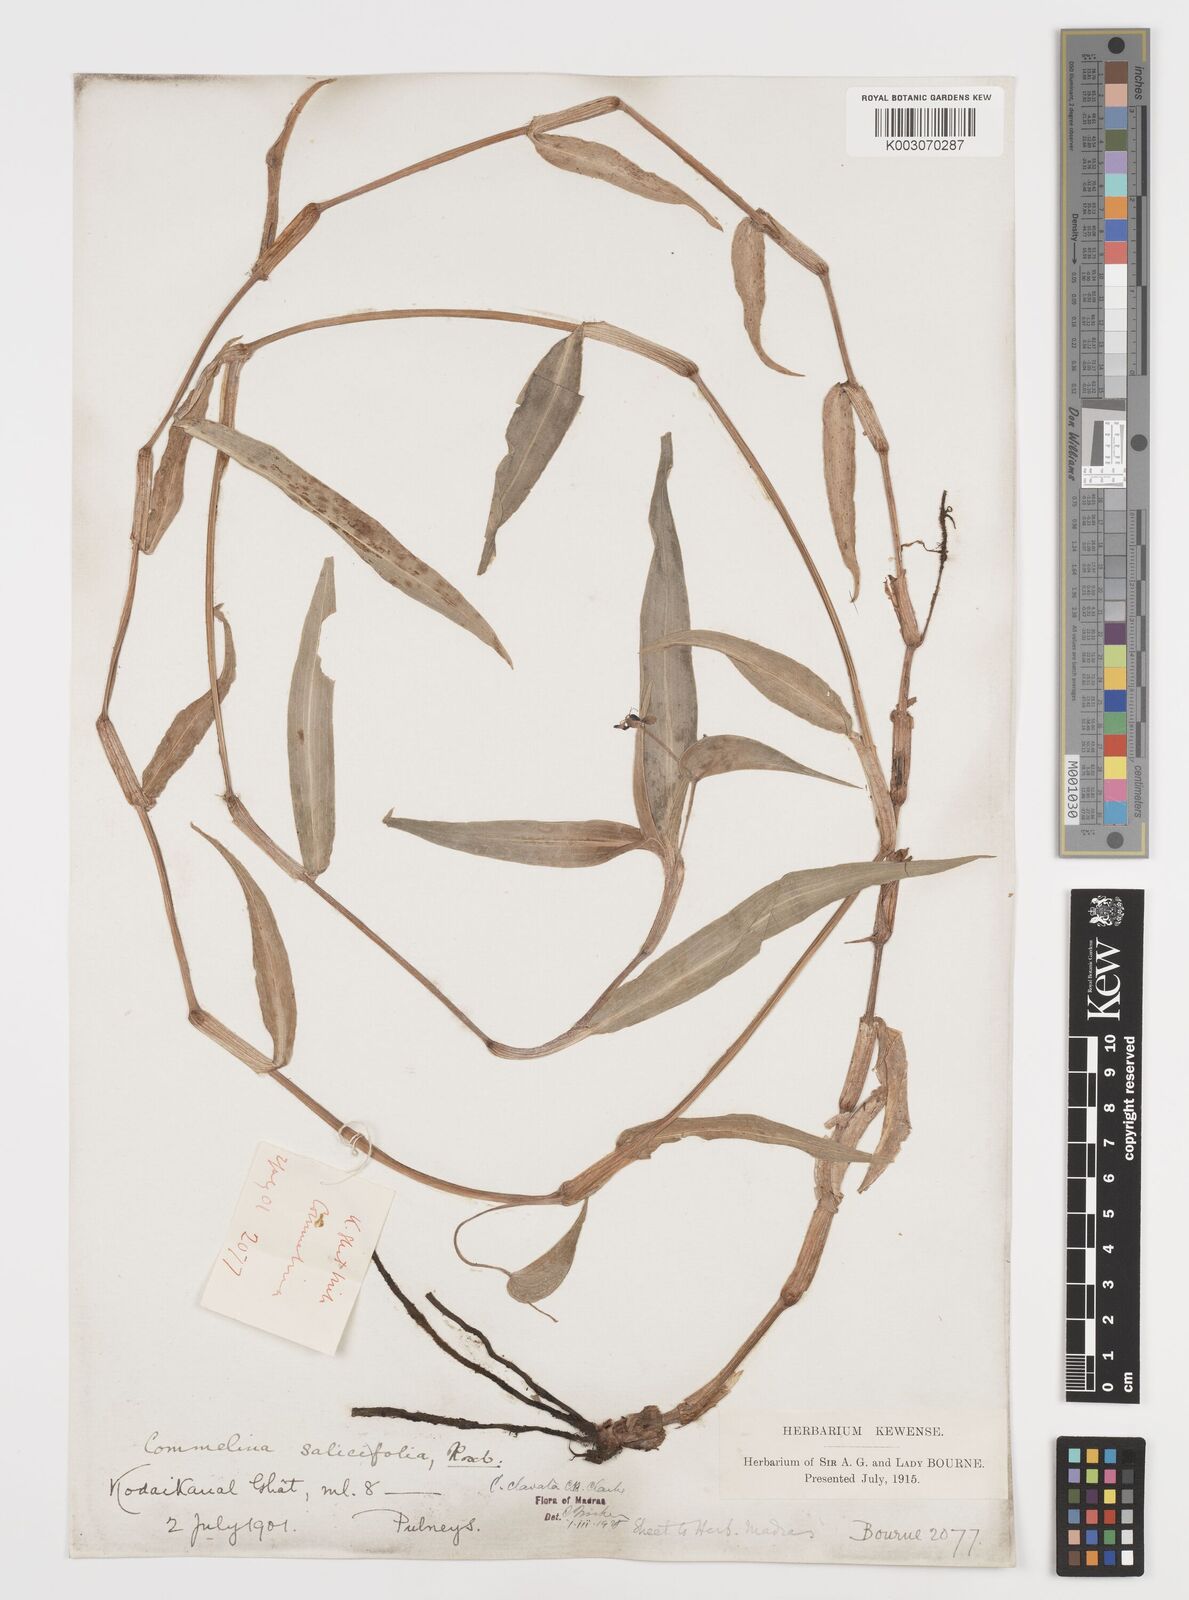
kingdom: Plantae
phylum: Tracheophyta
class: Liliopsida
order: Commelinales
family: Commelinaceae
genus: Commelina
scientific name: Commelina clavata
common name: Willow leaved dayflower
